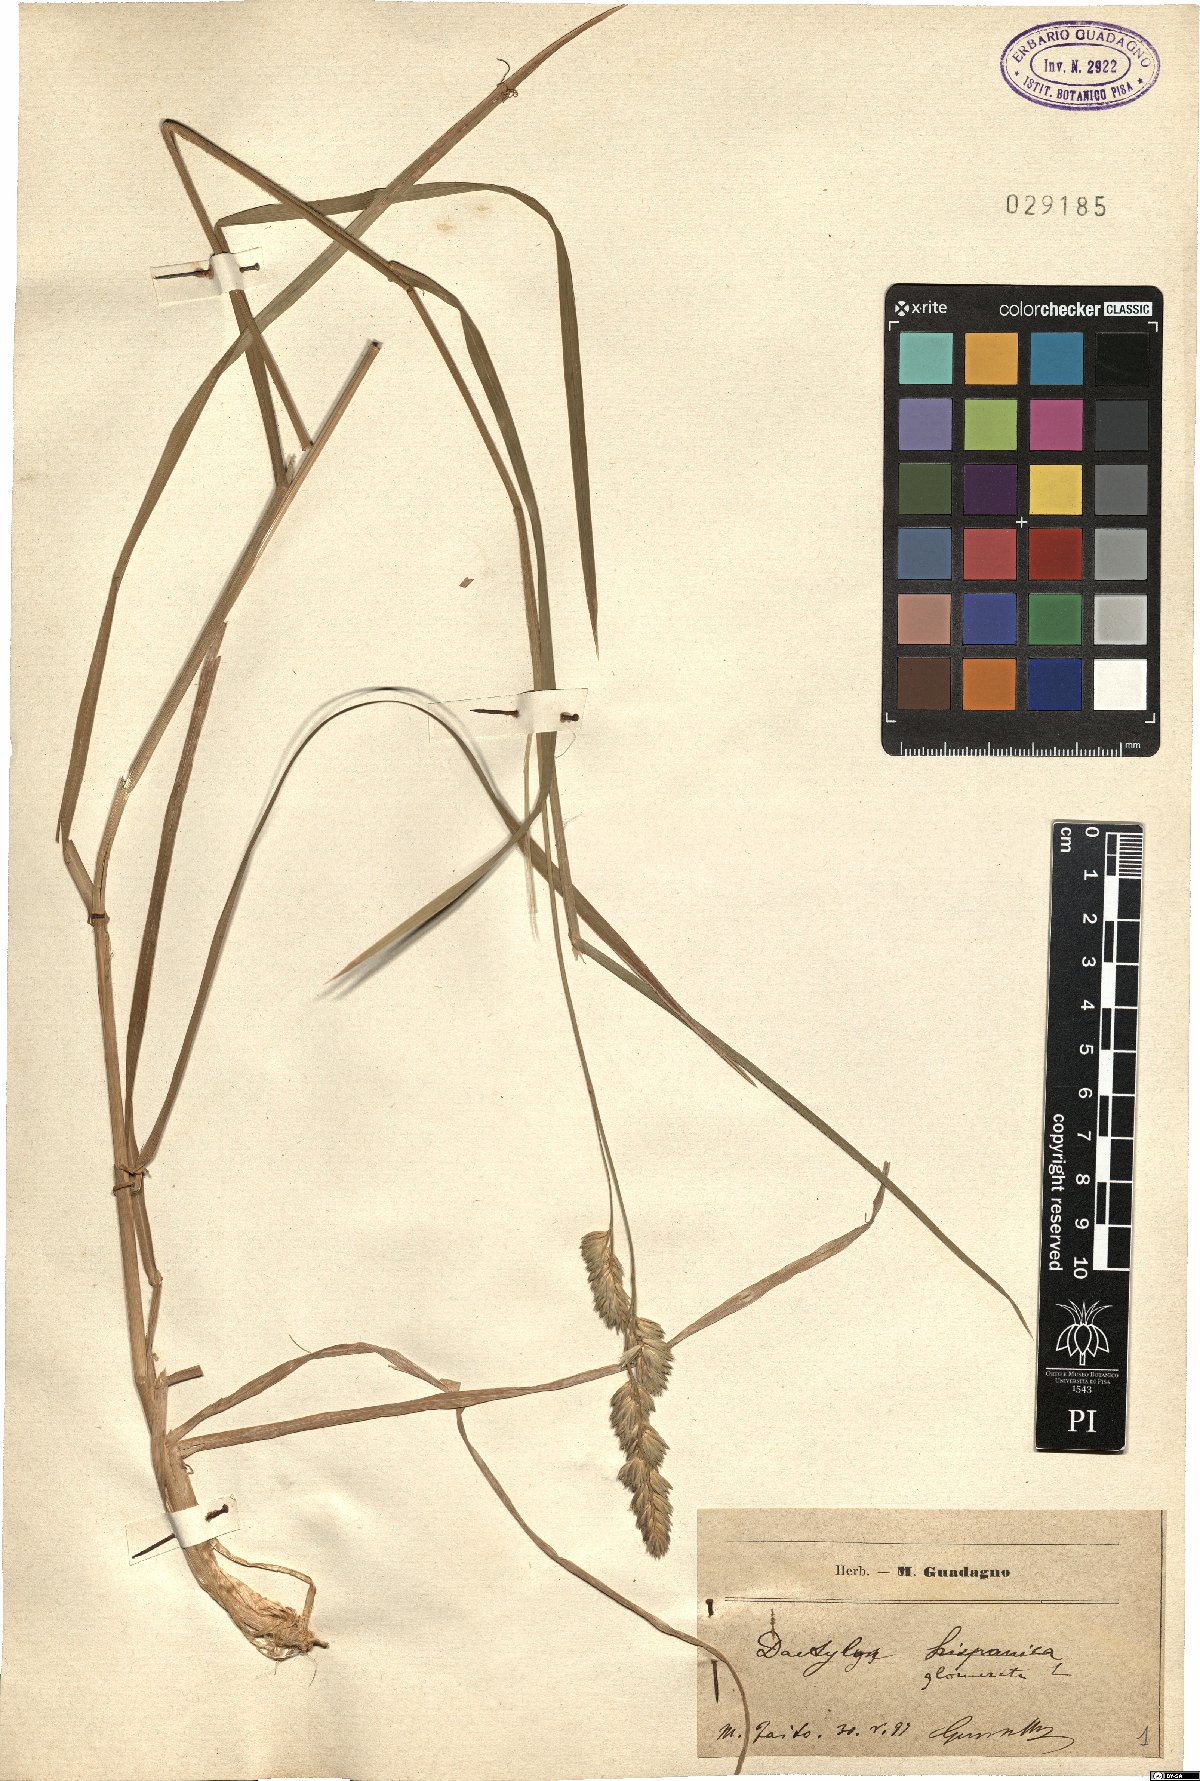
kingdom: Plantae
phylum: Tracheophyta
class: Liliopsida
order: Poales
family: Poaceae
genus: Dactylis
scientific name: Dactylis glomerata
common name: Orchardgrass
